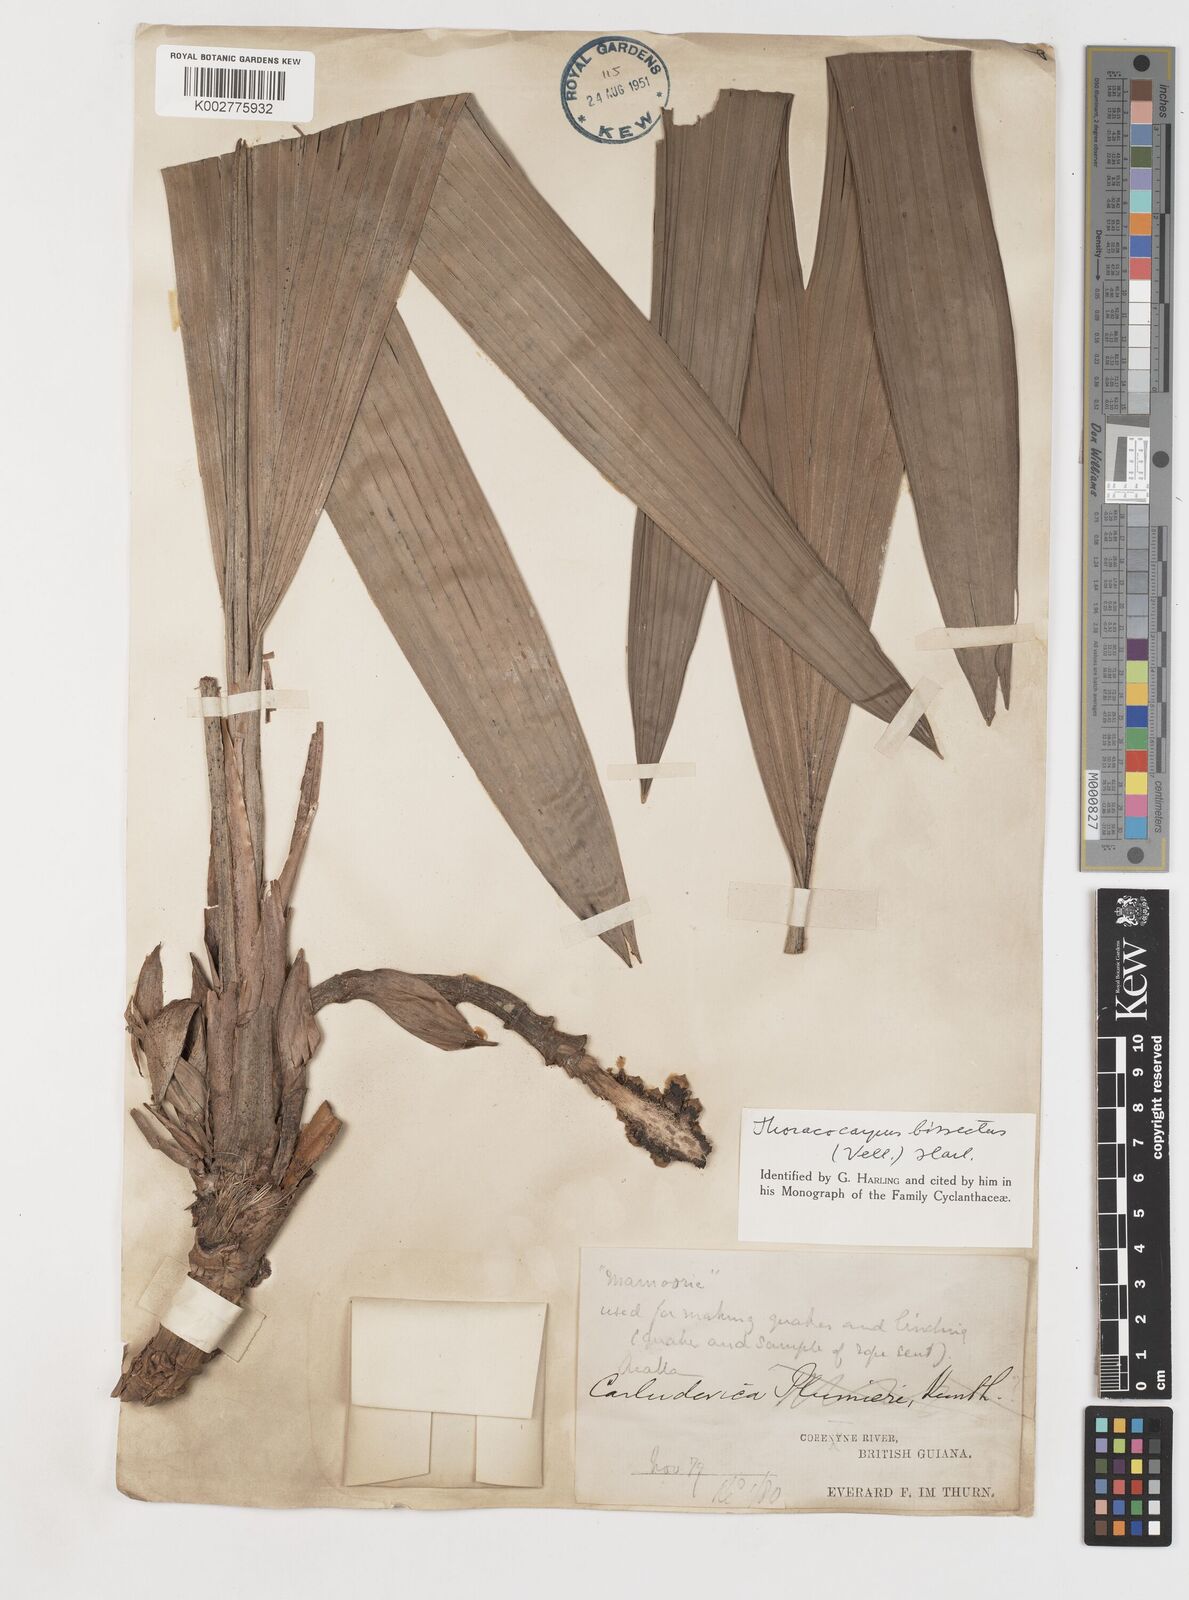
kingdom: Plantae
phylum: Tracheophyta
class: Liliopsida
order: Pandanales
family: Cyclanthaceae
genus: Thoracocarpus
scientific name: Thoracocarpus bissectus
